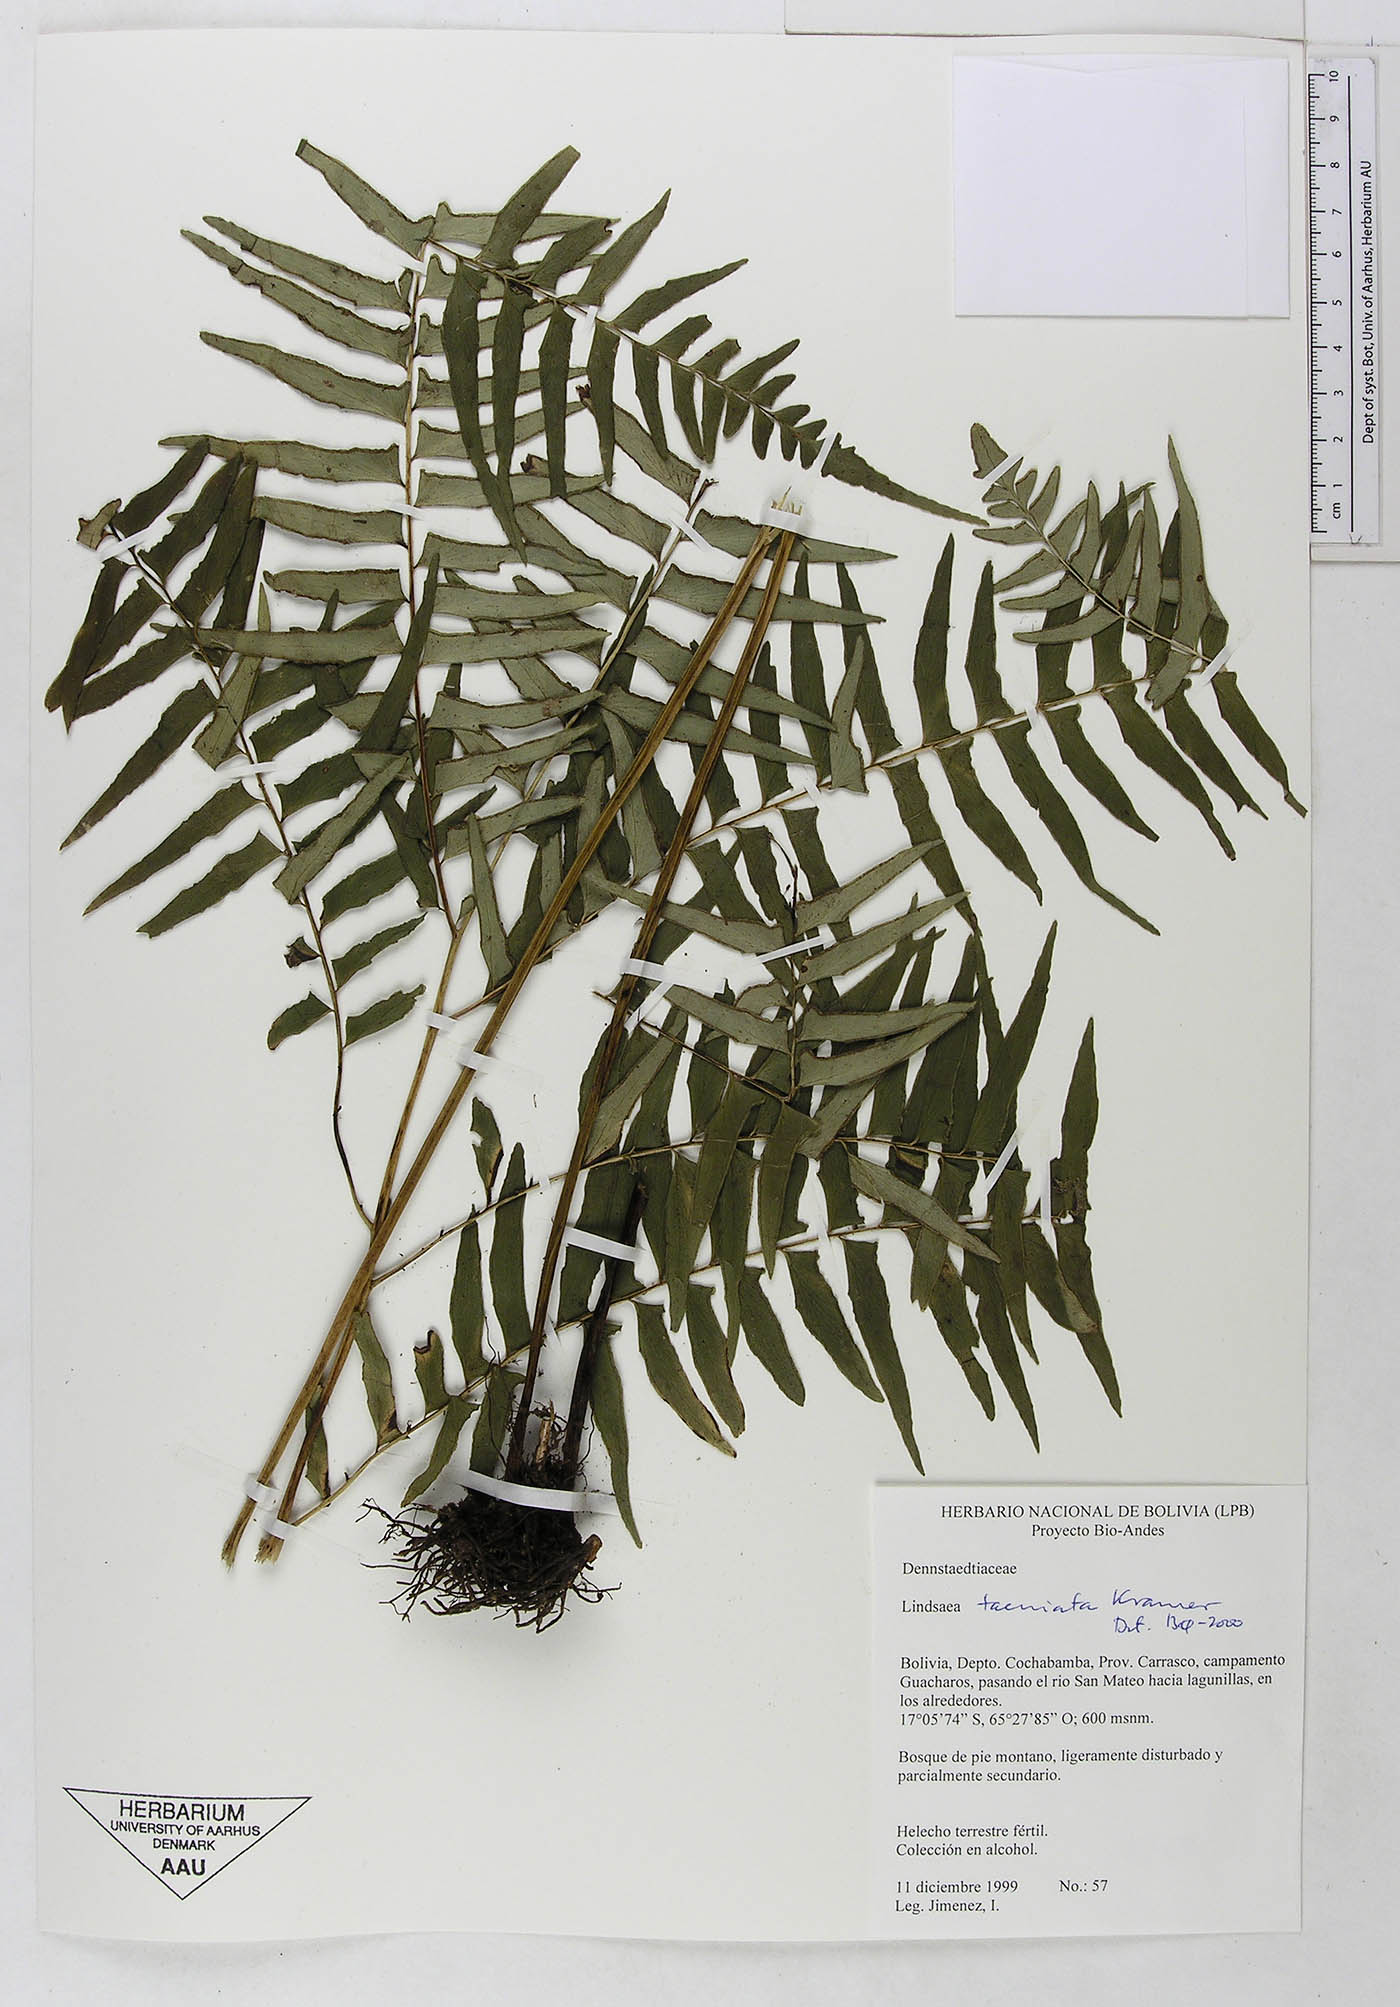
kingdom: Plantae
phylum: Tracheophyta
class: Polypodiopsida
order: Polypodiales
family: Lindsaeaceae
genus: Lindsaea
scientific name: Lindsaea taeniata
